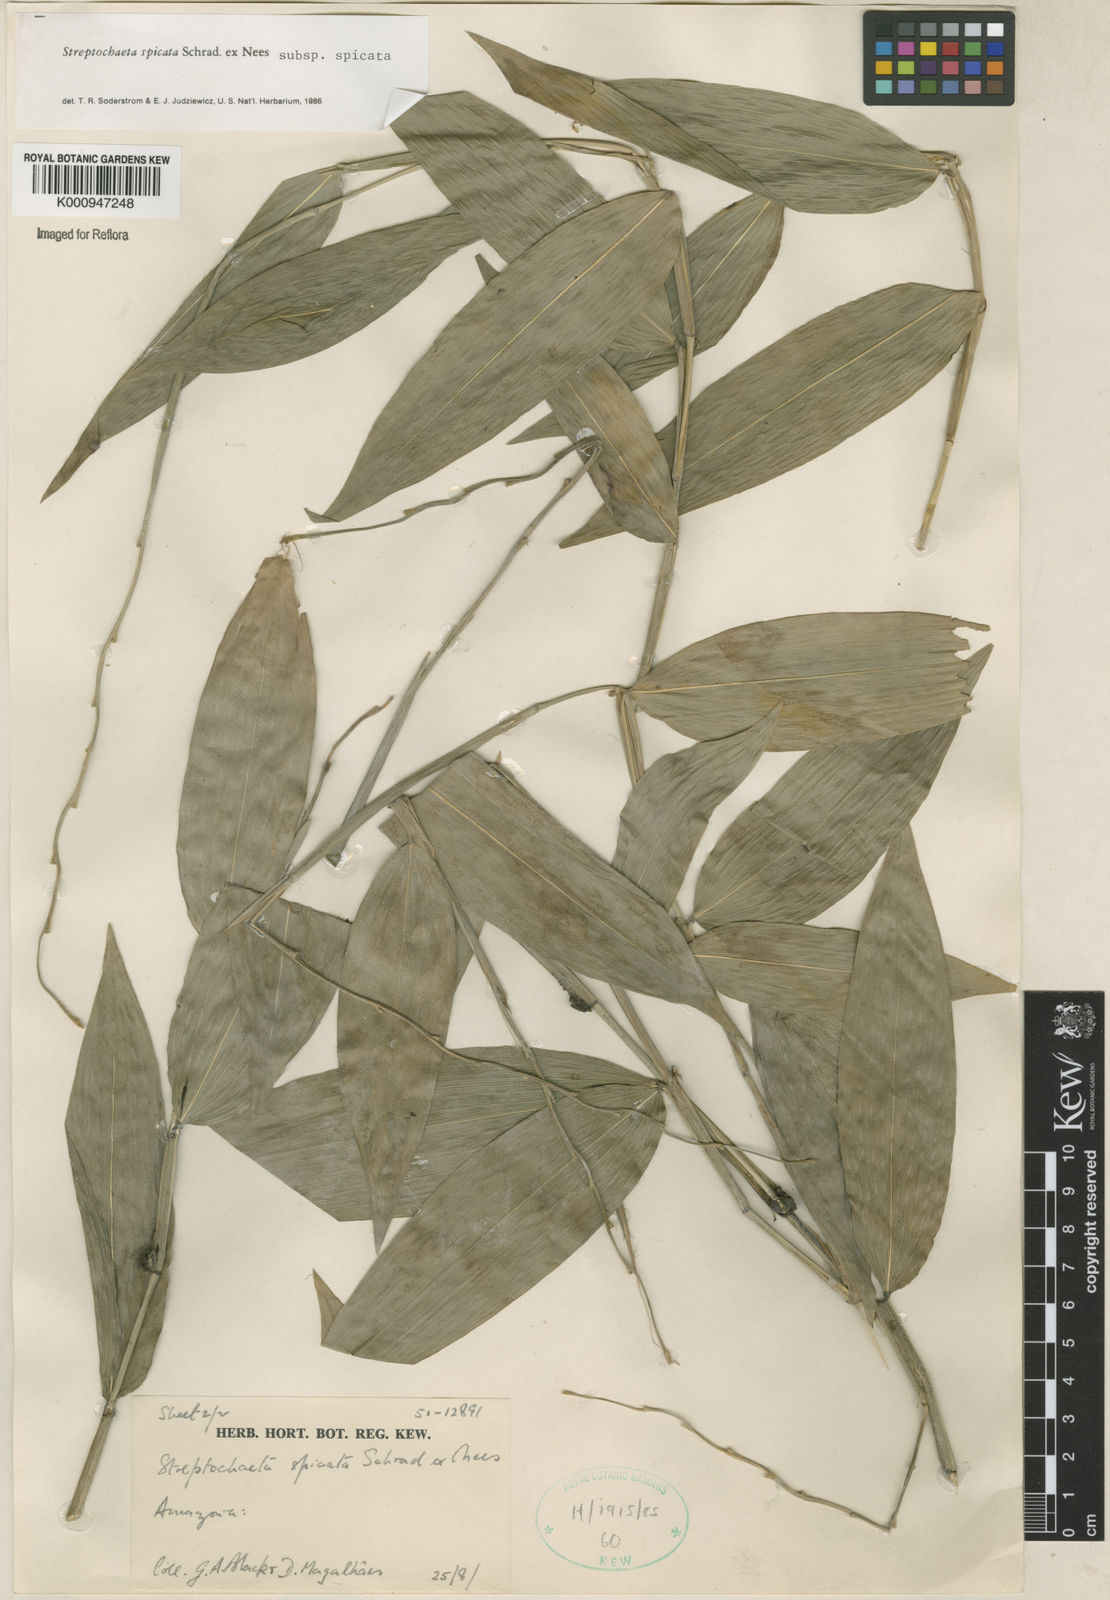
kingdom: Plantae
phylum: Tracheophyta
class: Liliopsida
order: Poales
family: Poaceae
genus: Streptochaeta
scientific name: Streptochaeta spicata
